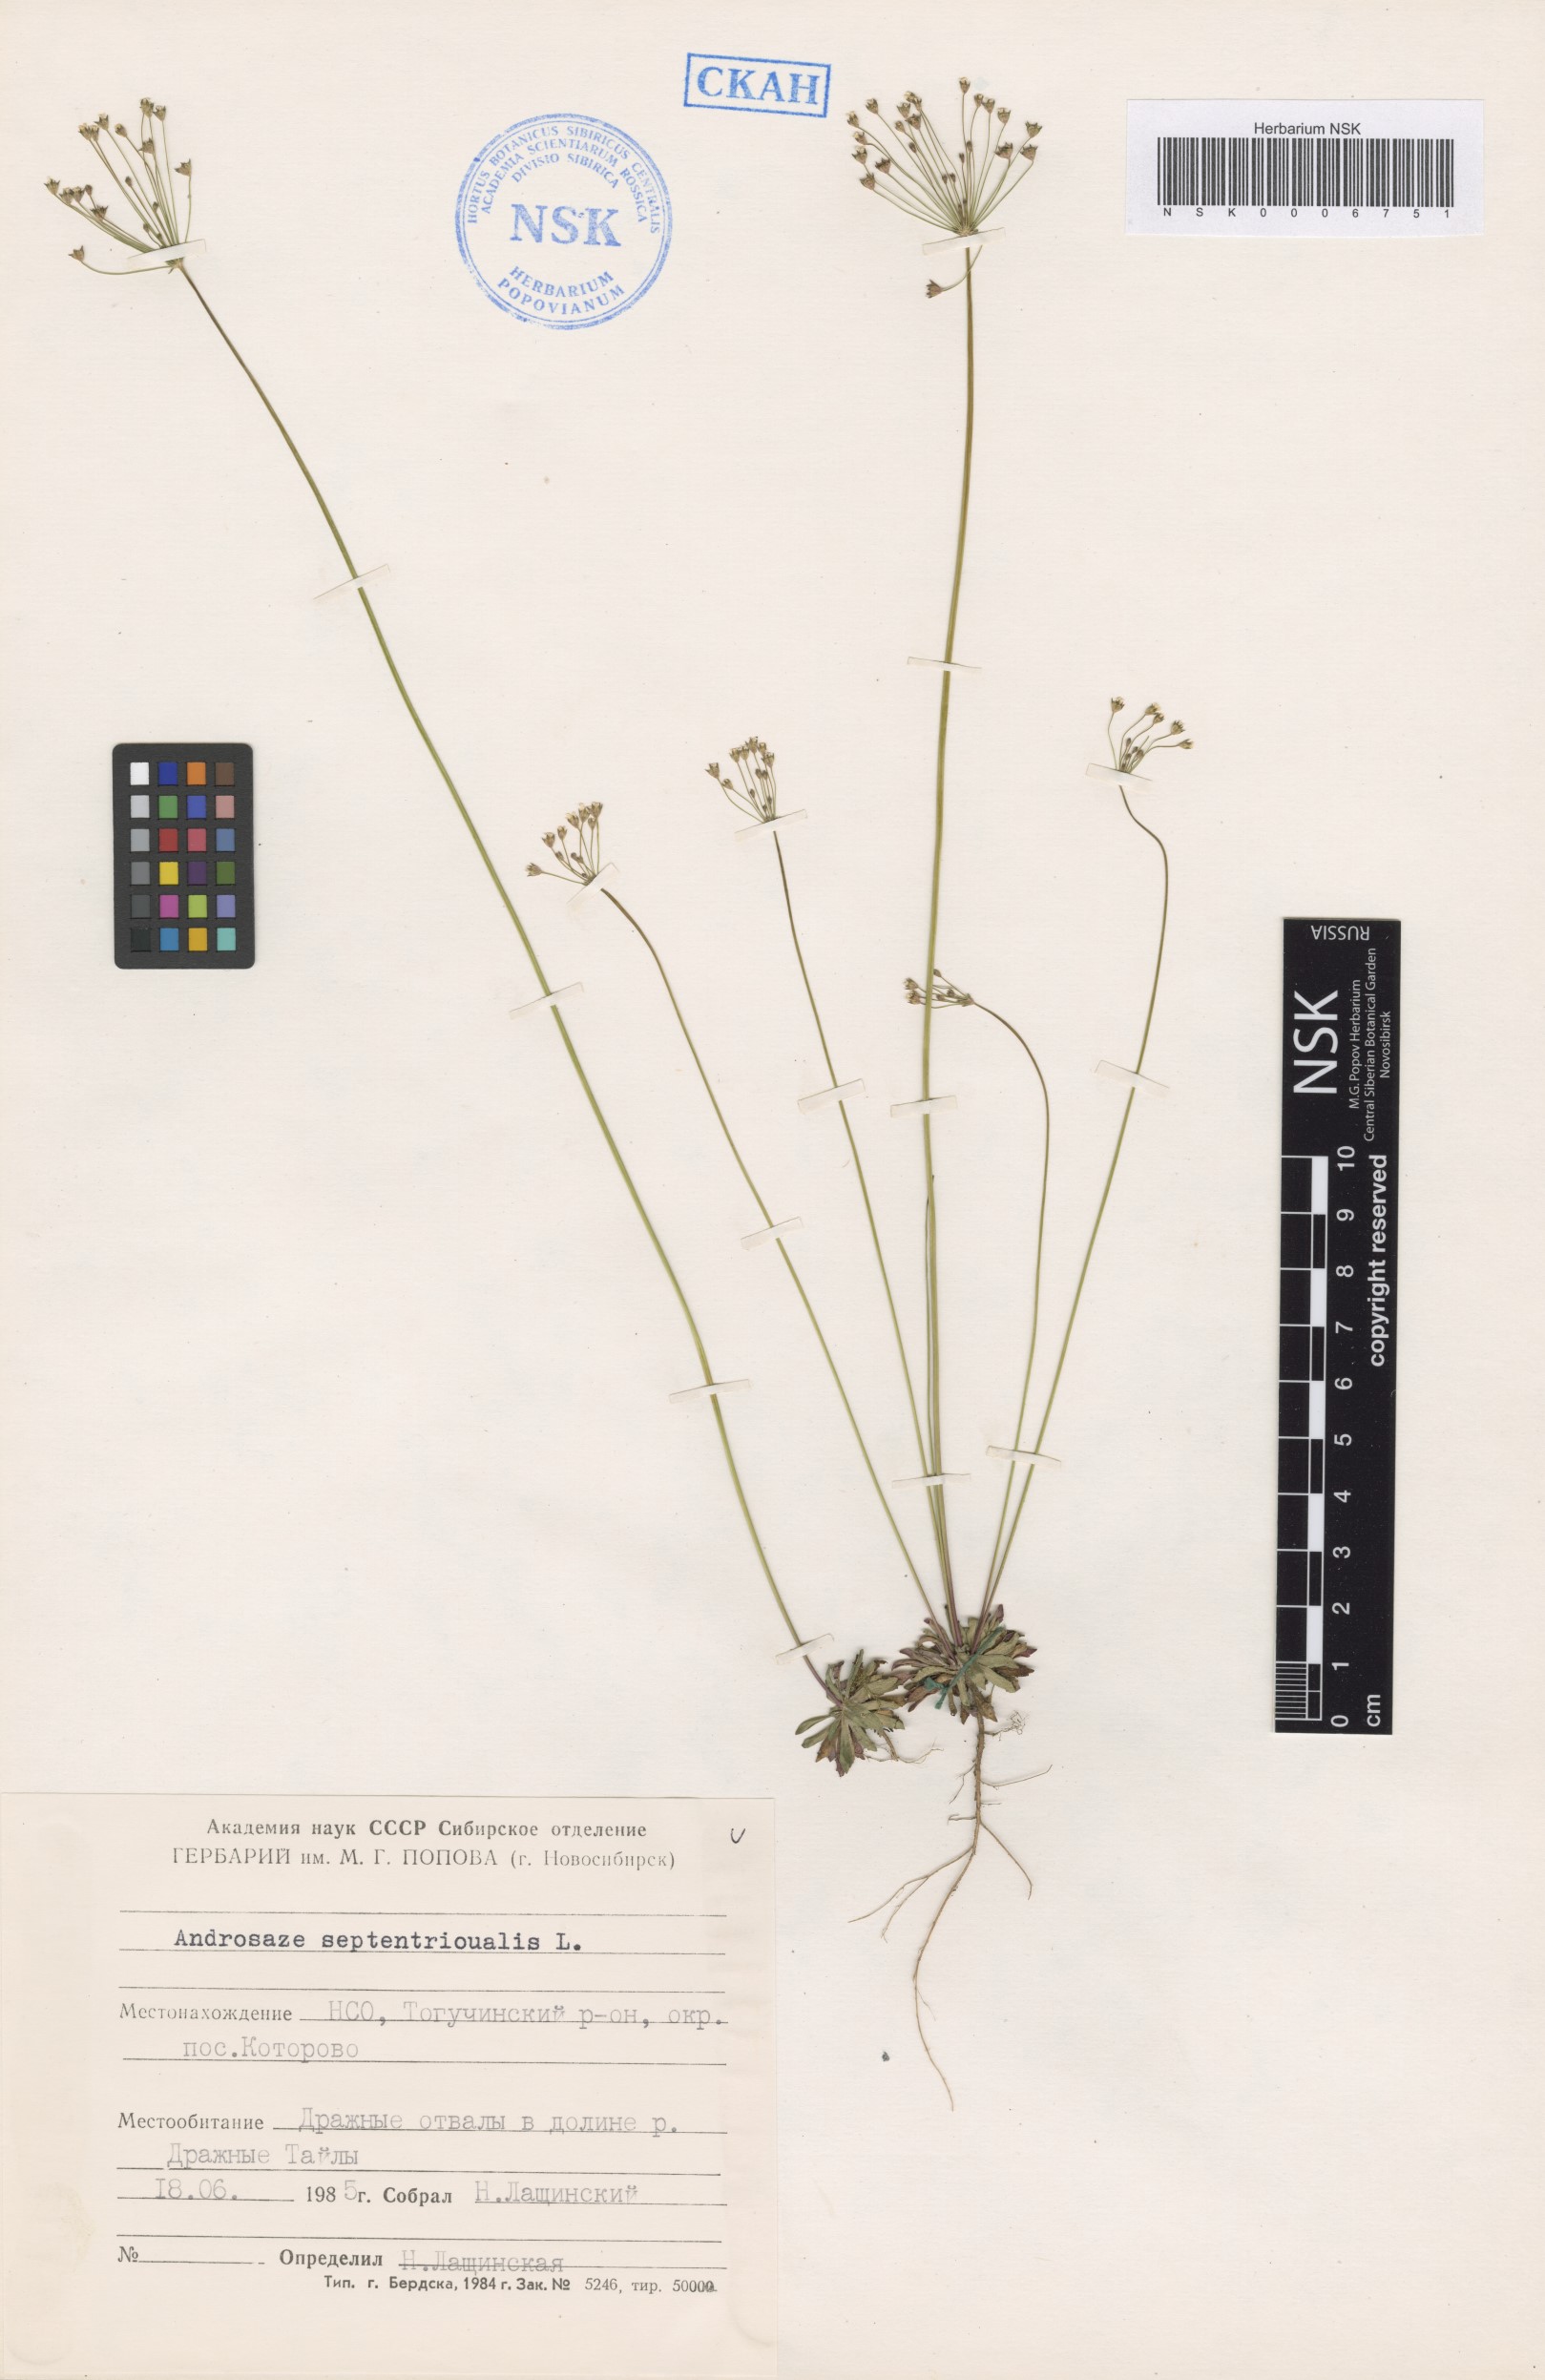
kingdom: Plantae
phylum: Tracheophyta
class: Magnoliopsida
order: Ericales
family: Primulaceae
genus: Androsace
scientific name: Androsace septentrionalis
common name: Hairy northern fairy-candelabra
